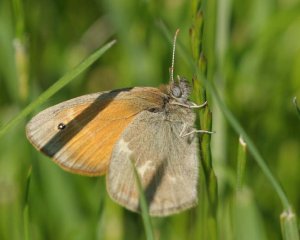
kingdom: Animalia
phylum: Arthropoda
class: Insecta
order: Lepidoptera
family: Nymphalidae
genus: Coenonympha
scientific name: Coenonympha tullia
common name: Large Heath
